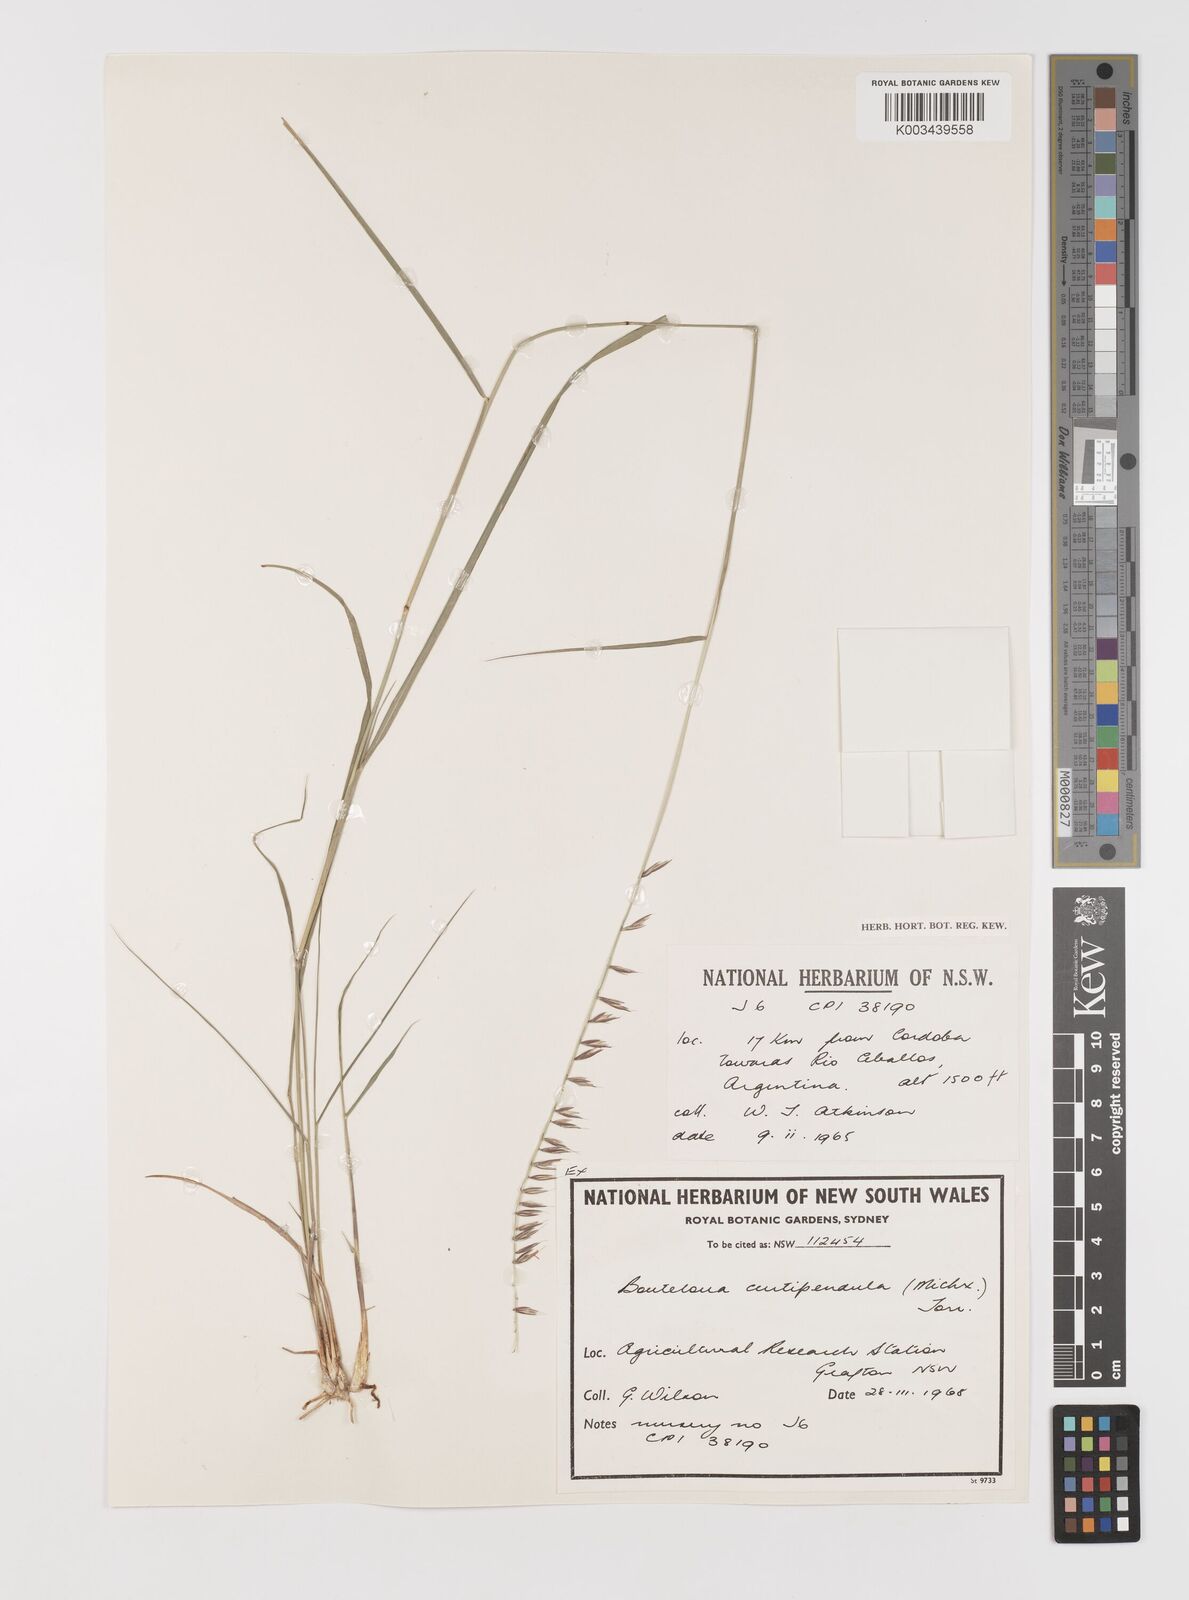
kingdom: Plantae
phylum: Tracheophyta
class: Liliopsida
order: Poales
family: Poaceae
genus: Bouteloua
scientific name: Bouteloua curtipendula
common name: Side-oats grama
